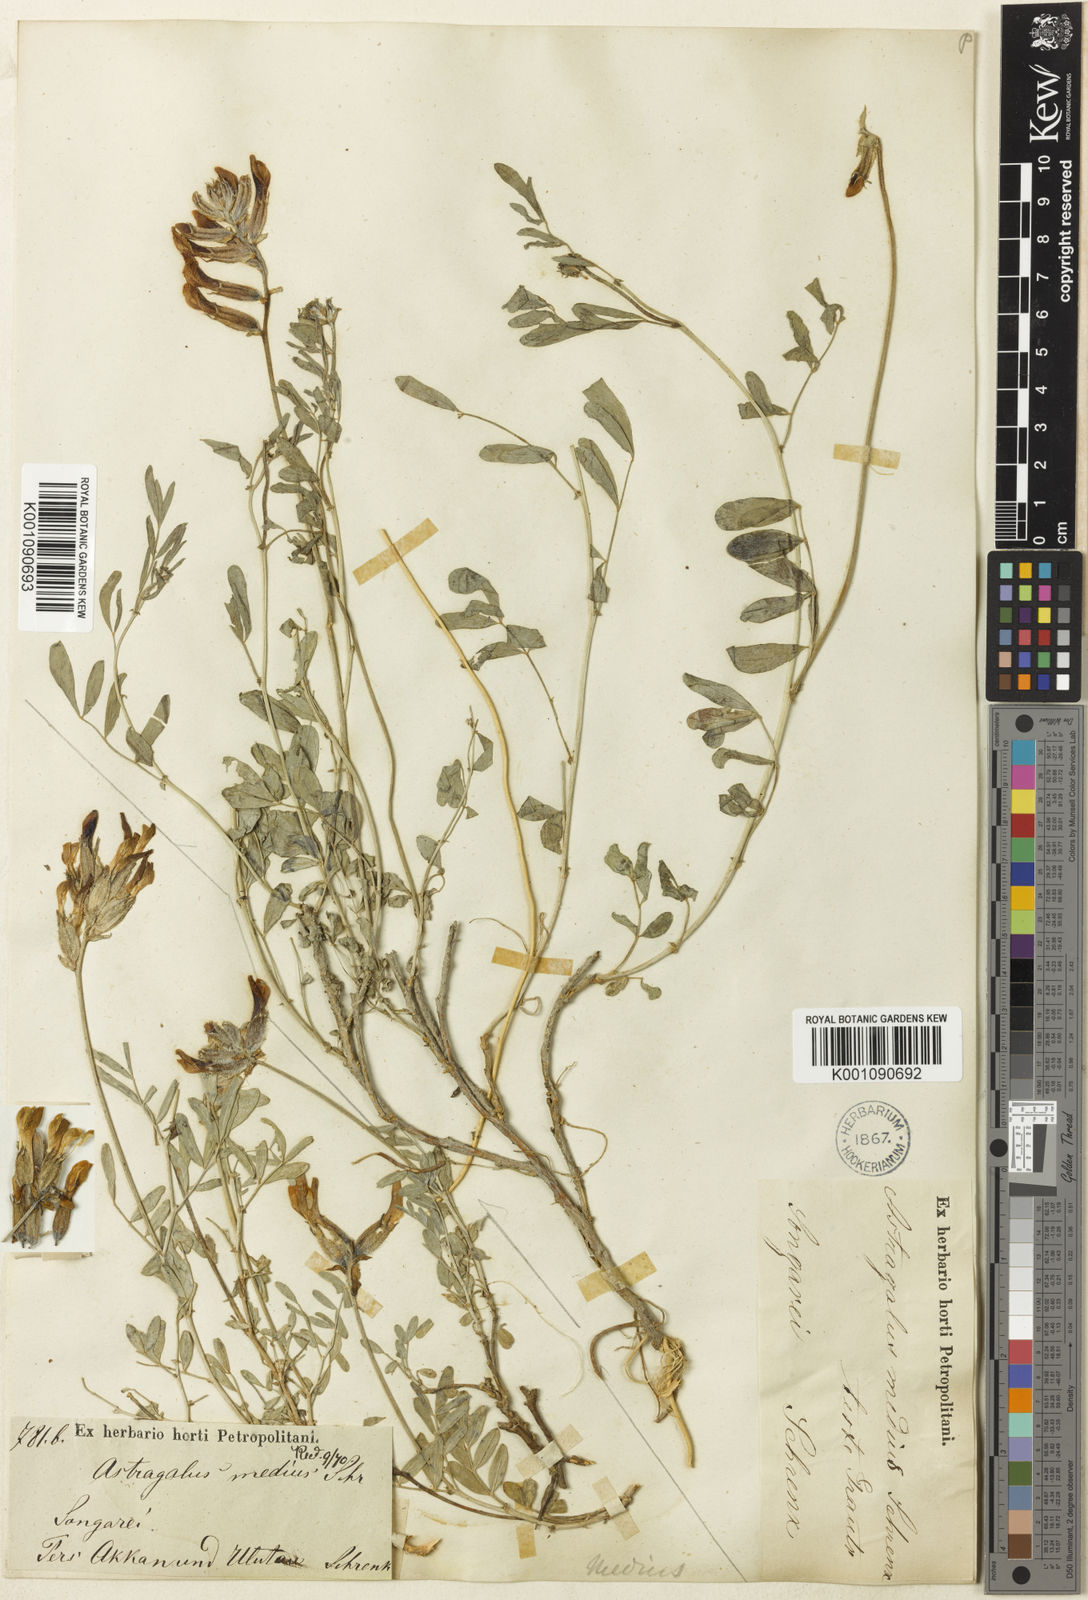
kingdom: Plantae
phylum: Tracheophyta
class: Magnoliopsida
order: Fabales
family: Fabaceae
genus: Astragalus
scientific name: Astragalus
